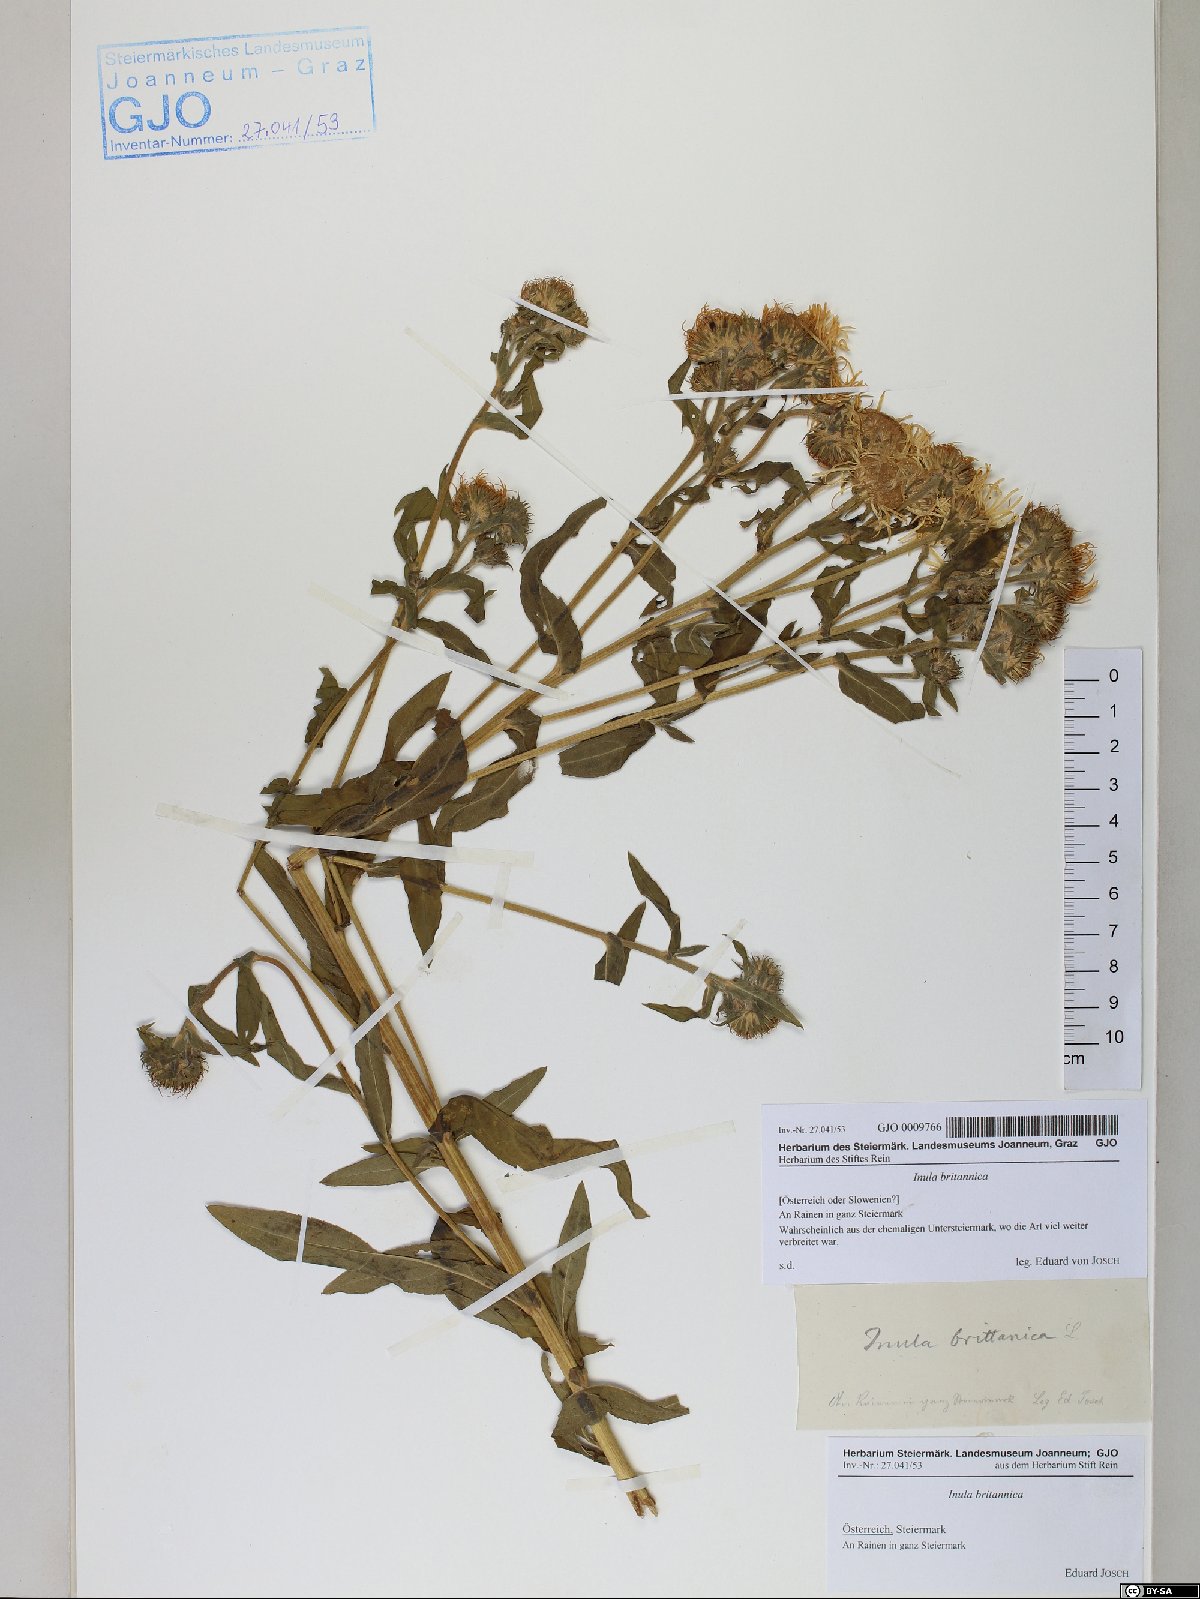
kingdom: Plantae
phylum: Tracheophyta
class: Magnoliopsida
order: Asterales
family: Asteraceae
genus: Pentanema
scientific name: Pentanema britannicum
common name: British elecampane
